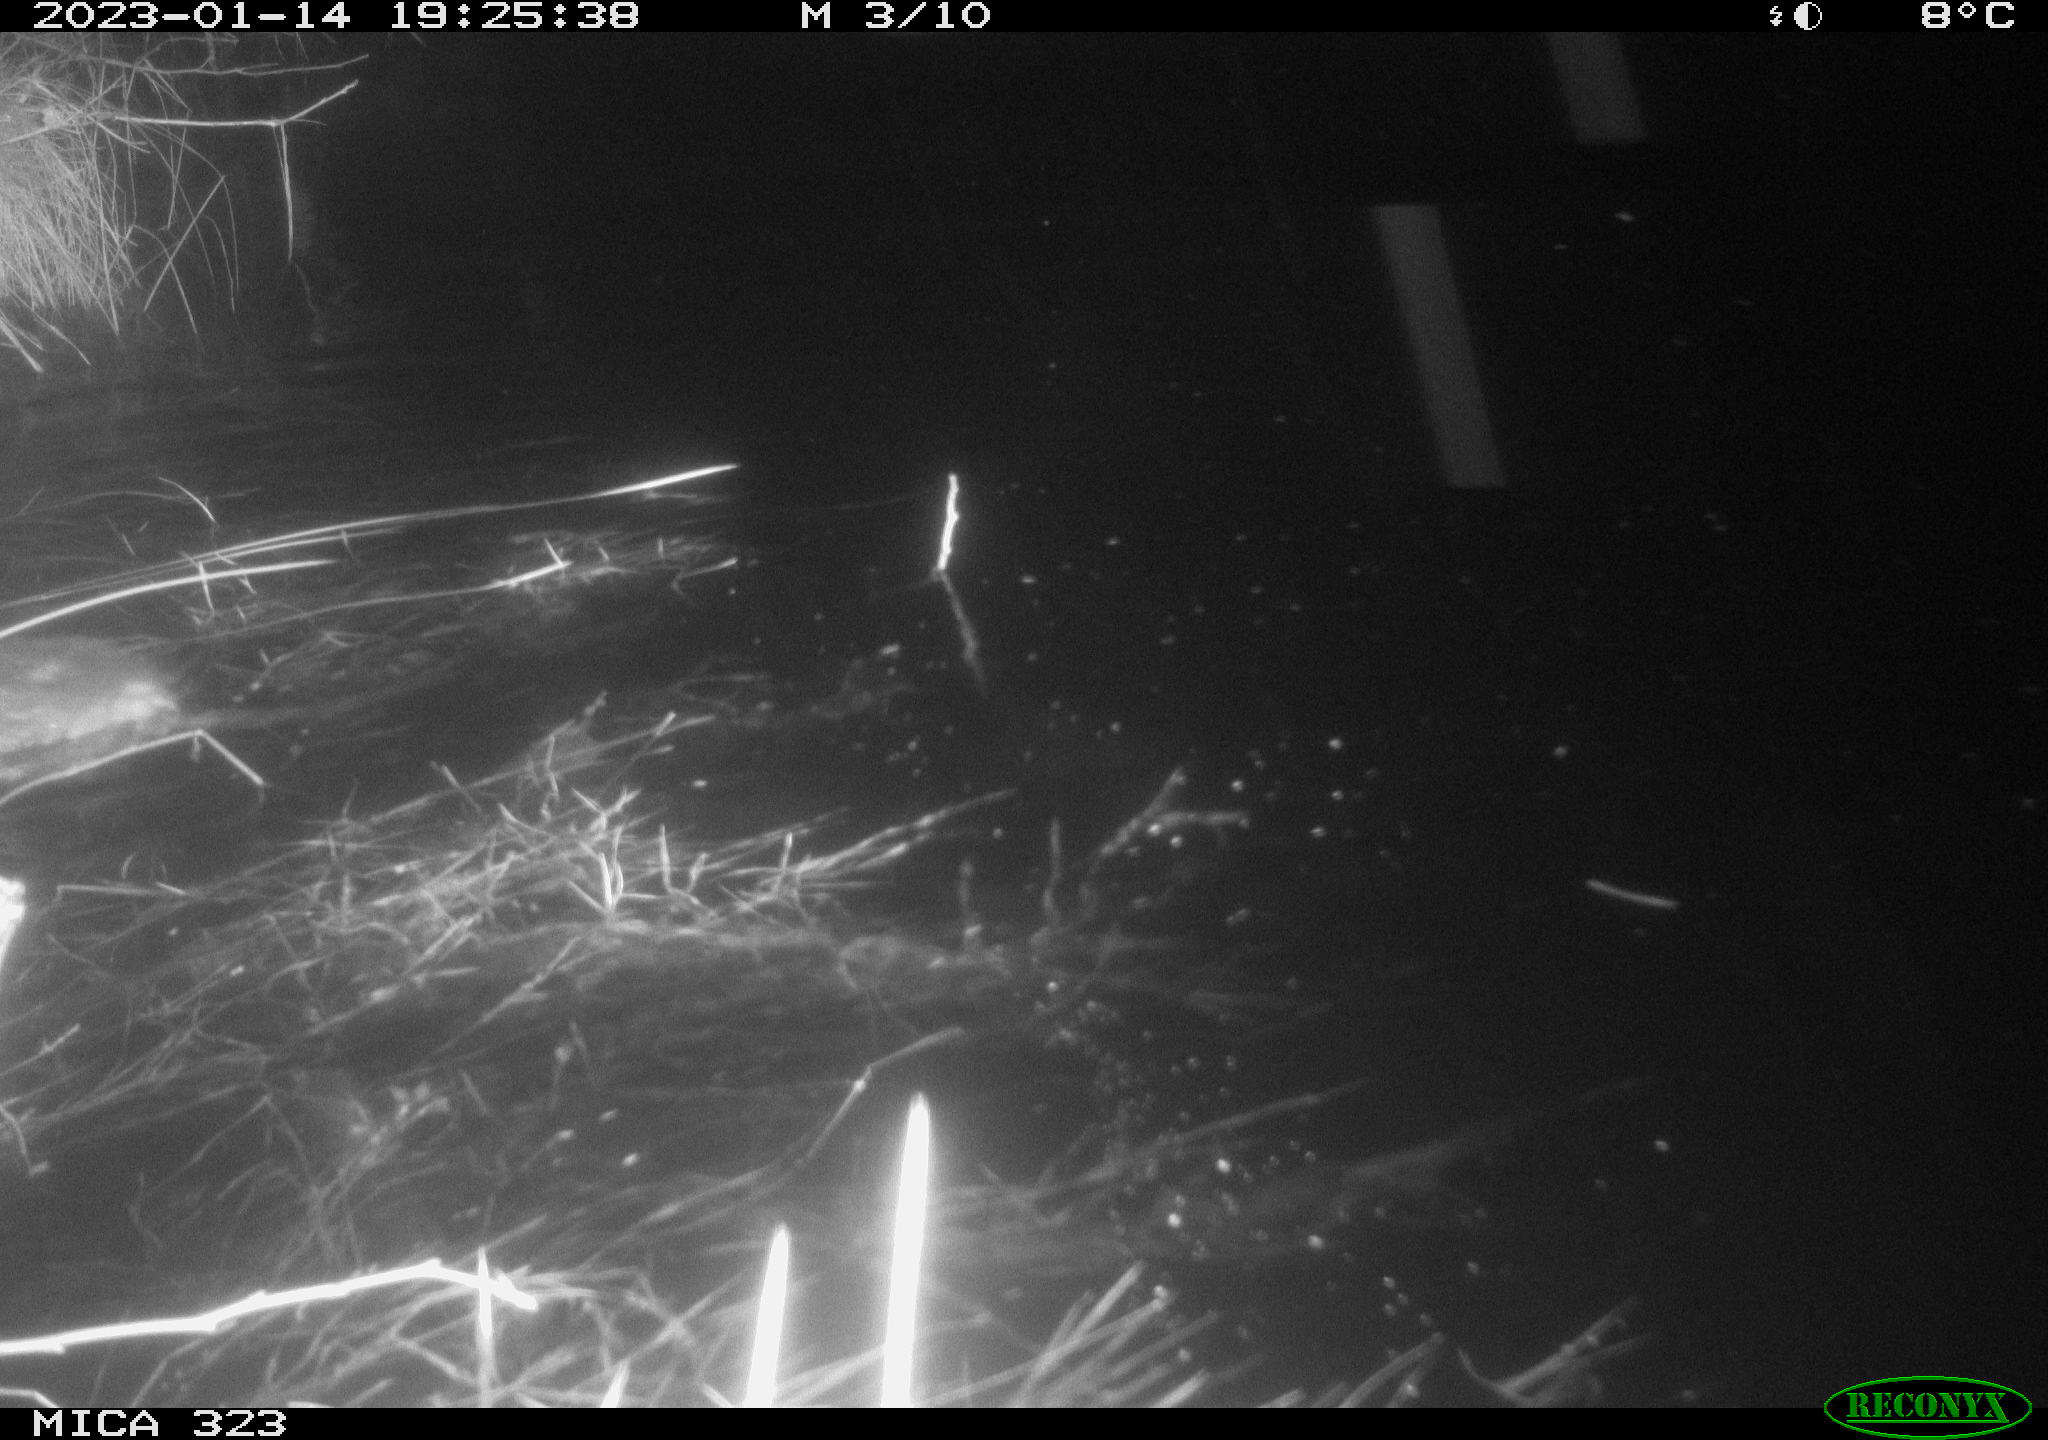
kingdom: Animalia
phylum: Chordata
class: Mammalia
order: Rodentia
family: Cricetidae
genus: Ondatra
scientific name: Ondatra zibethicus
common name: Muskrat
